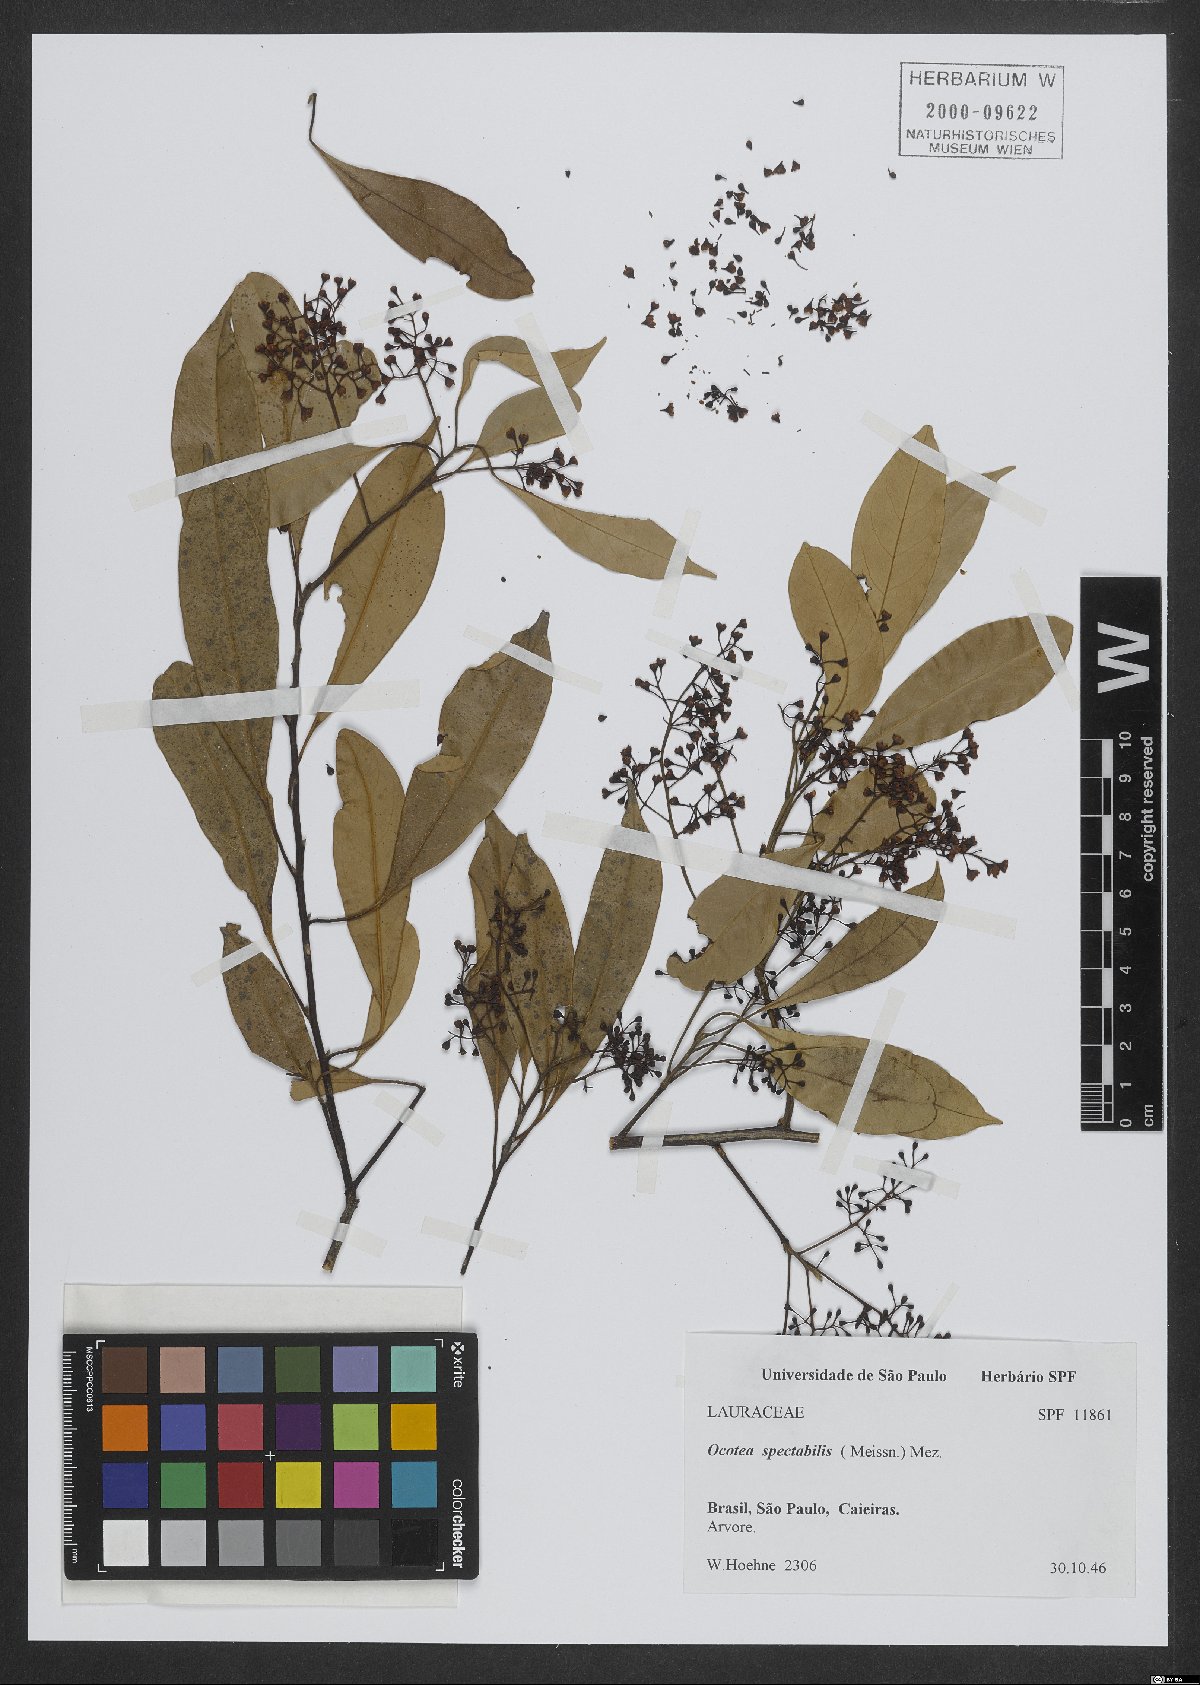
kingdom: Plantae
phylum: Tracheophyta
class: Magnoliopsida
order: Laurales
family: Lauraceae
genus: Ocotea
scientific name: Ocotea spectabilis
